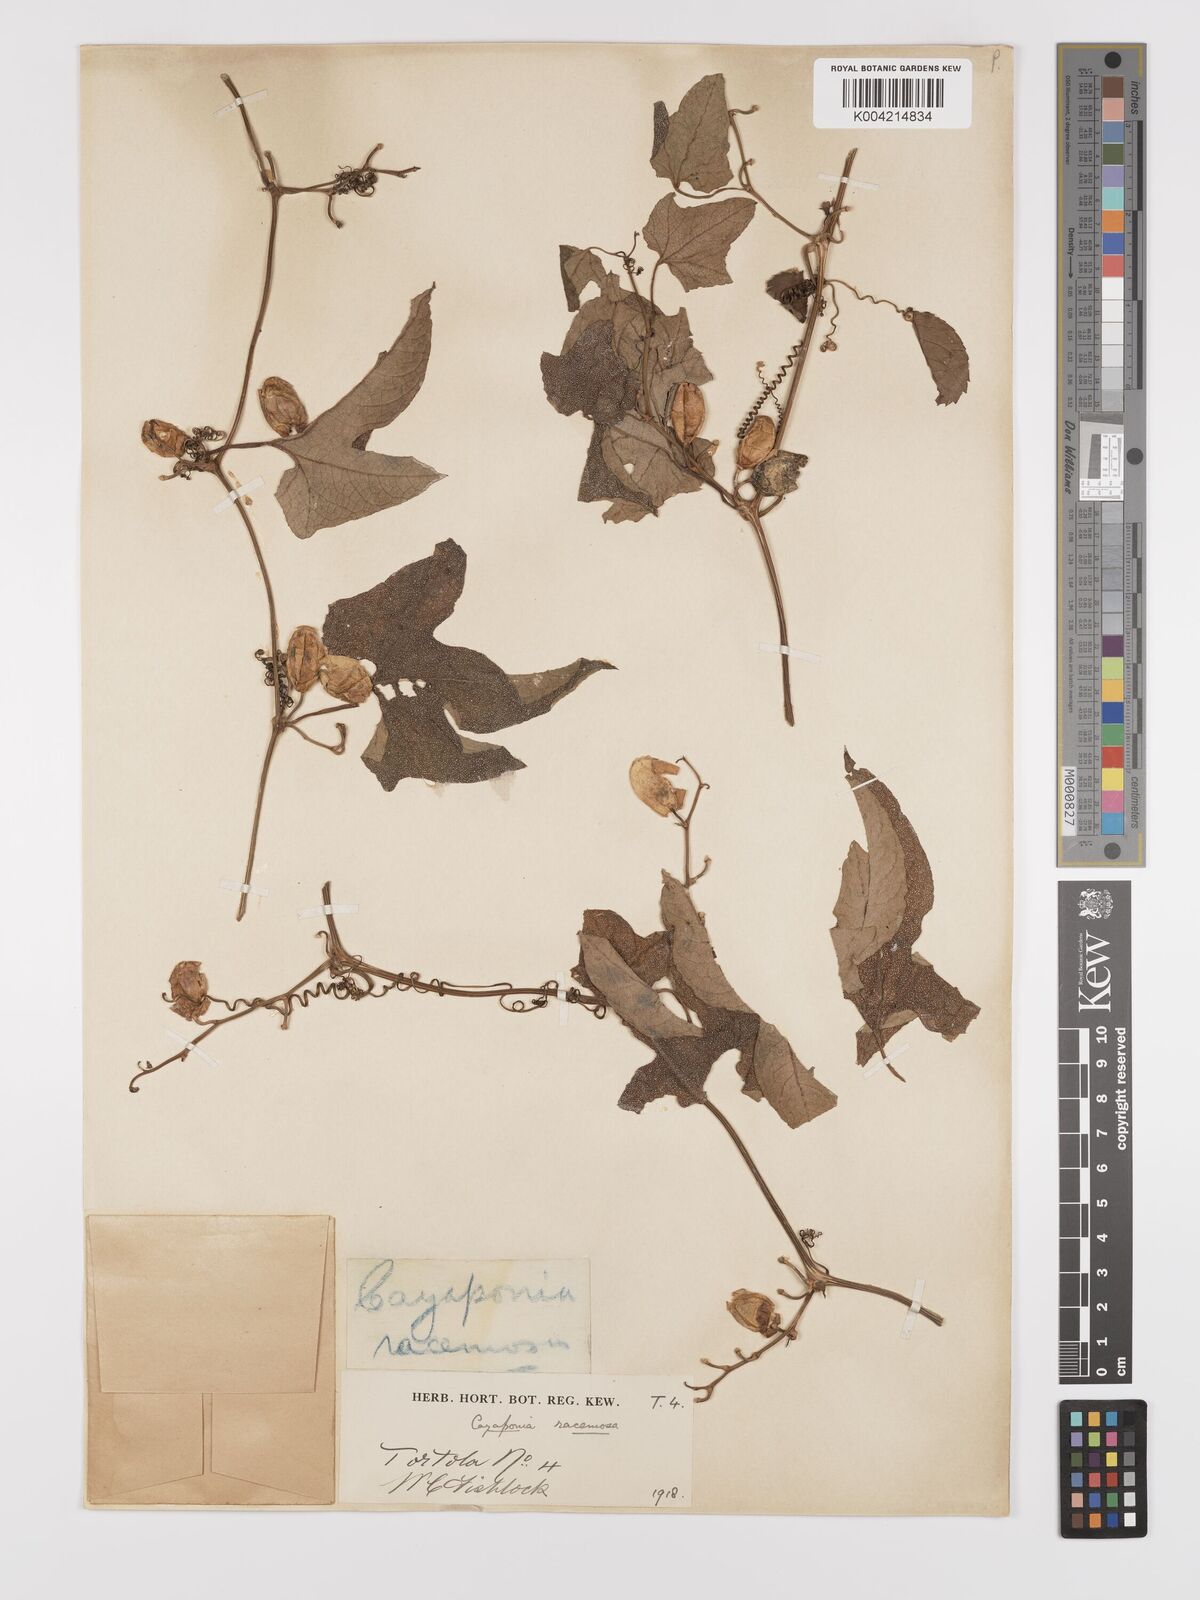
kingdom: Plantae
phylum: Tracheophyta
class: Magnoliopsida
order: Cucurbitales
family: Cucurbitaceae
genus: Cayaponia
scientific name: Cayaponia americana
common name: American melonleaf
